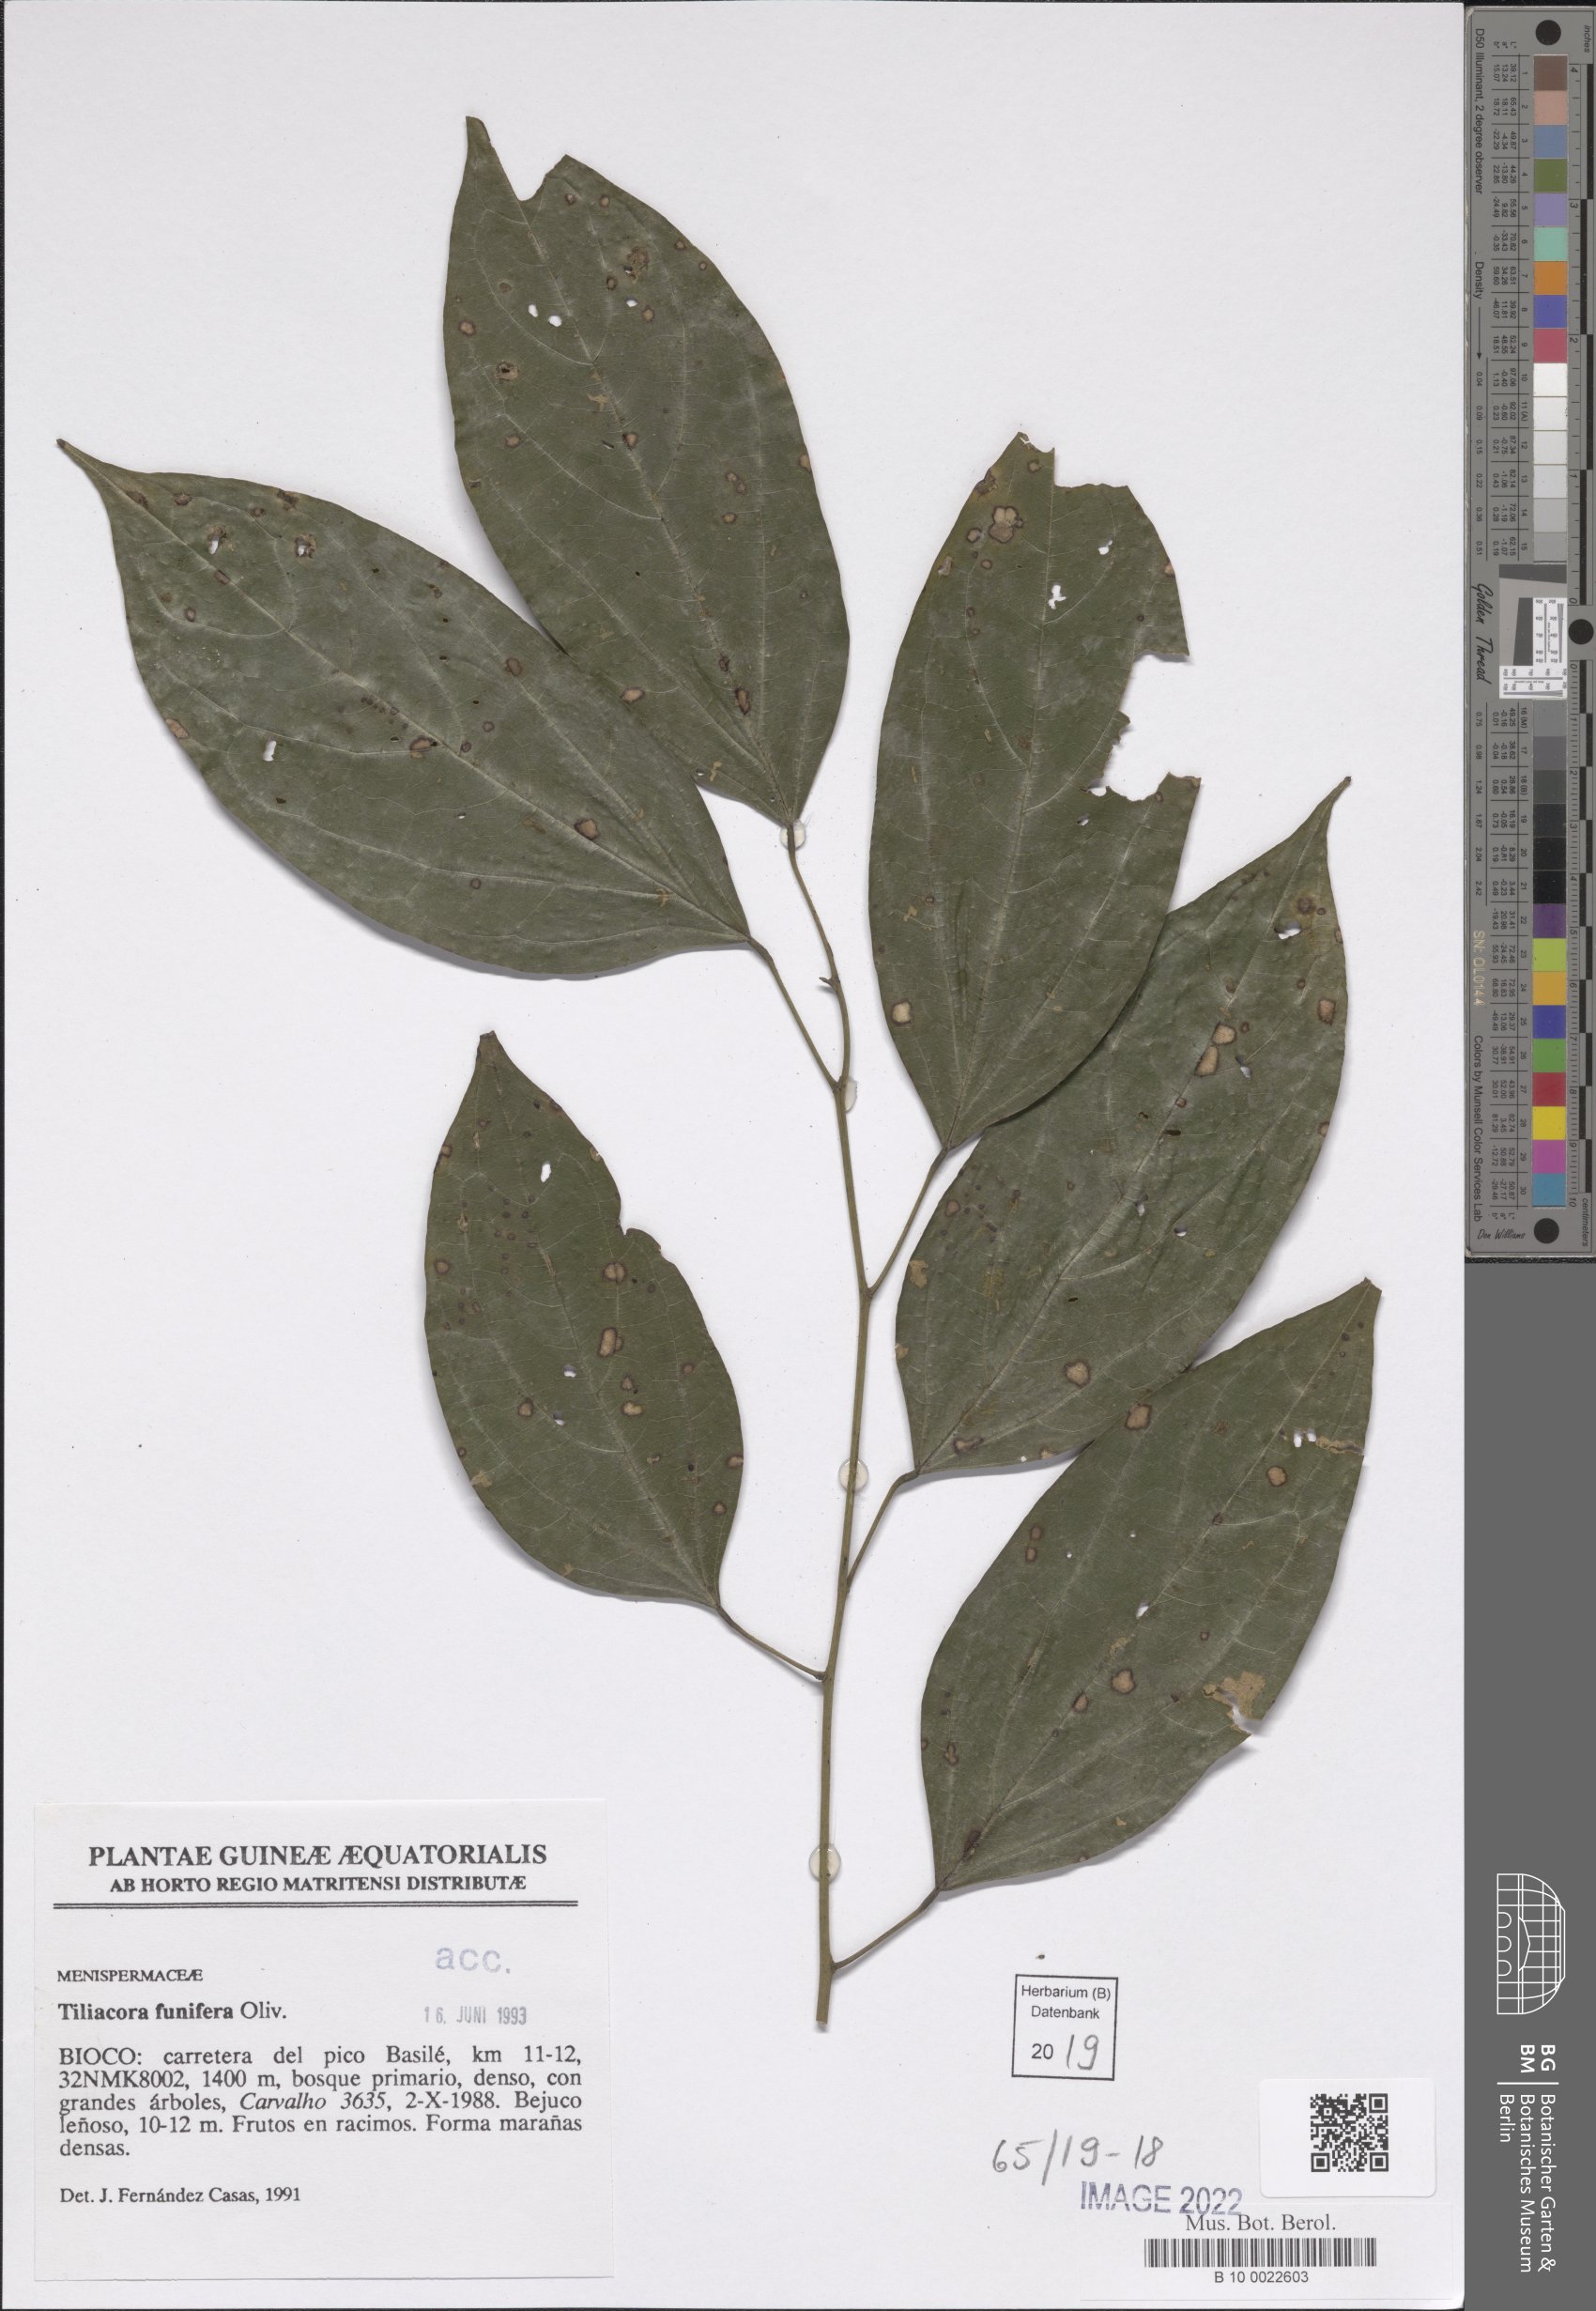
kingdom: Plantae
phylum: Tracheophyta
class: Magnoliopsida
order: Ranunculales
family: Menispermaceae
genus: Tiliacora
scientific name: Tiliacora funifera
